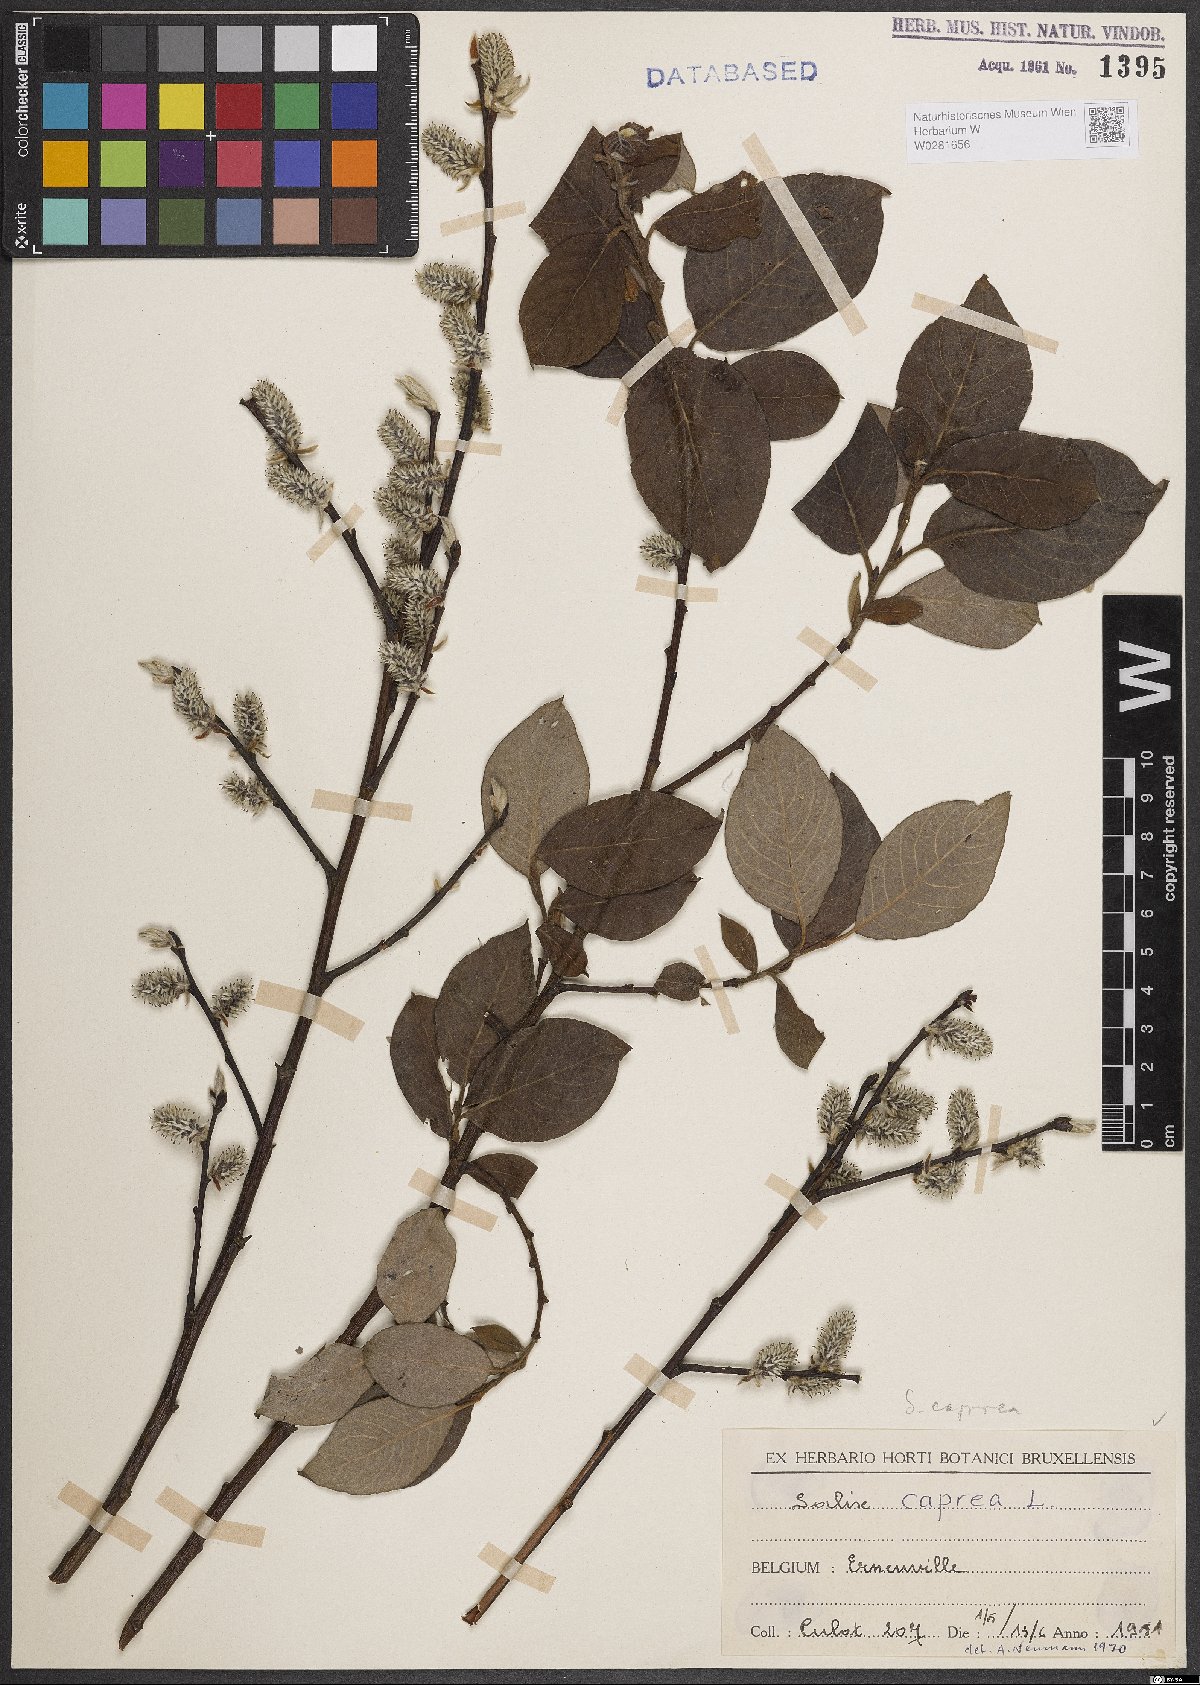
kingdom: Plantae
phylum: Tracheophyta
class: Magnoliopsida
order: Malpighiales
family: Salicaceae
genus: Salix
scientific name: Salix caprea
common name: Goat willow
